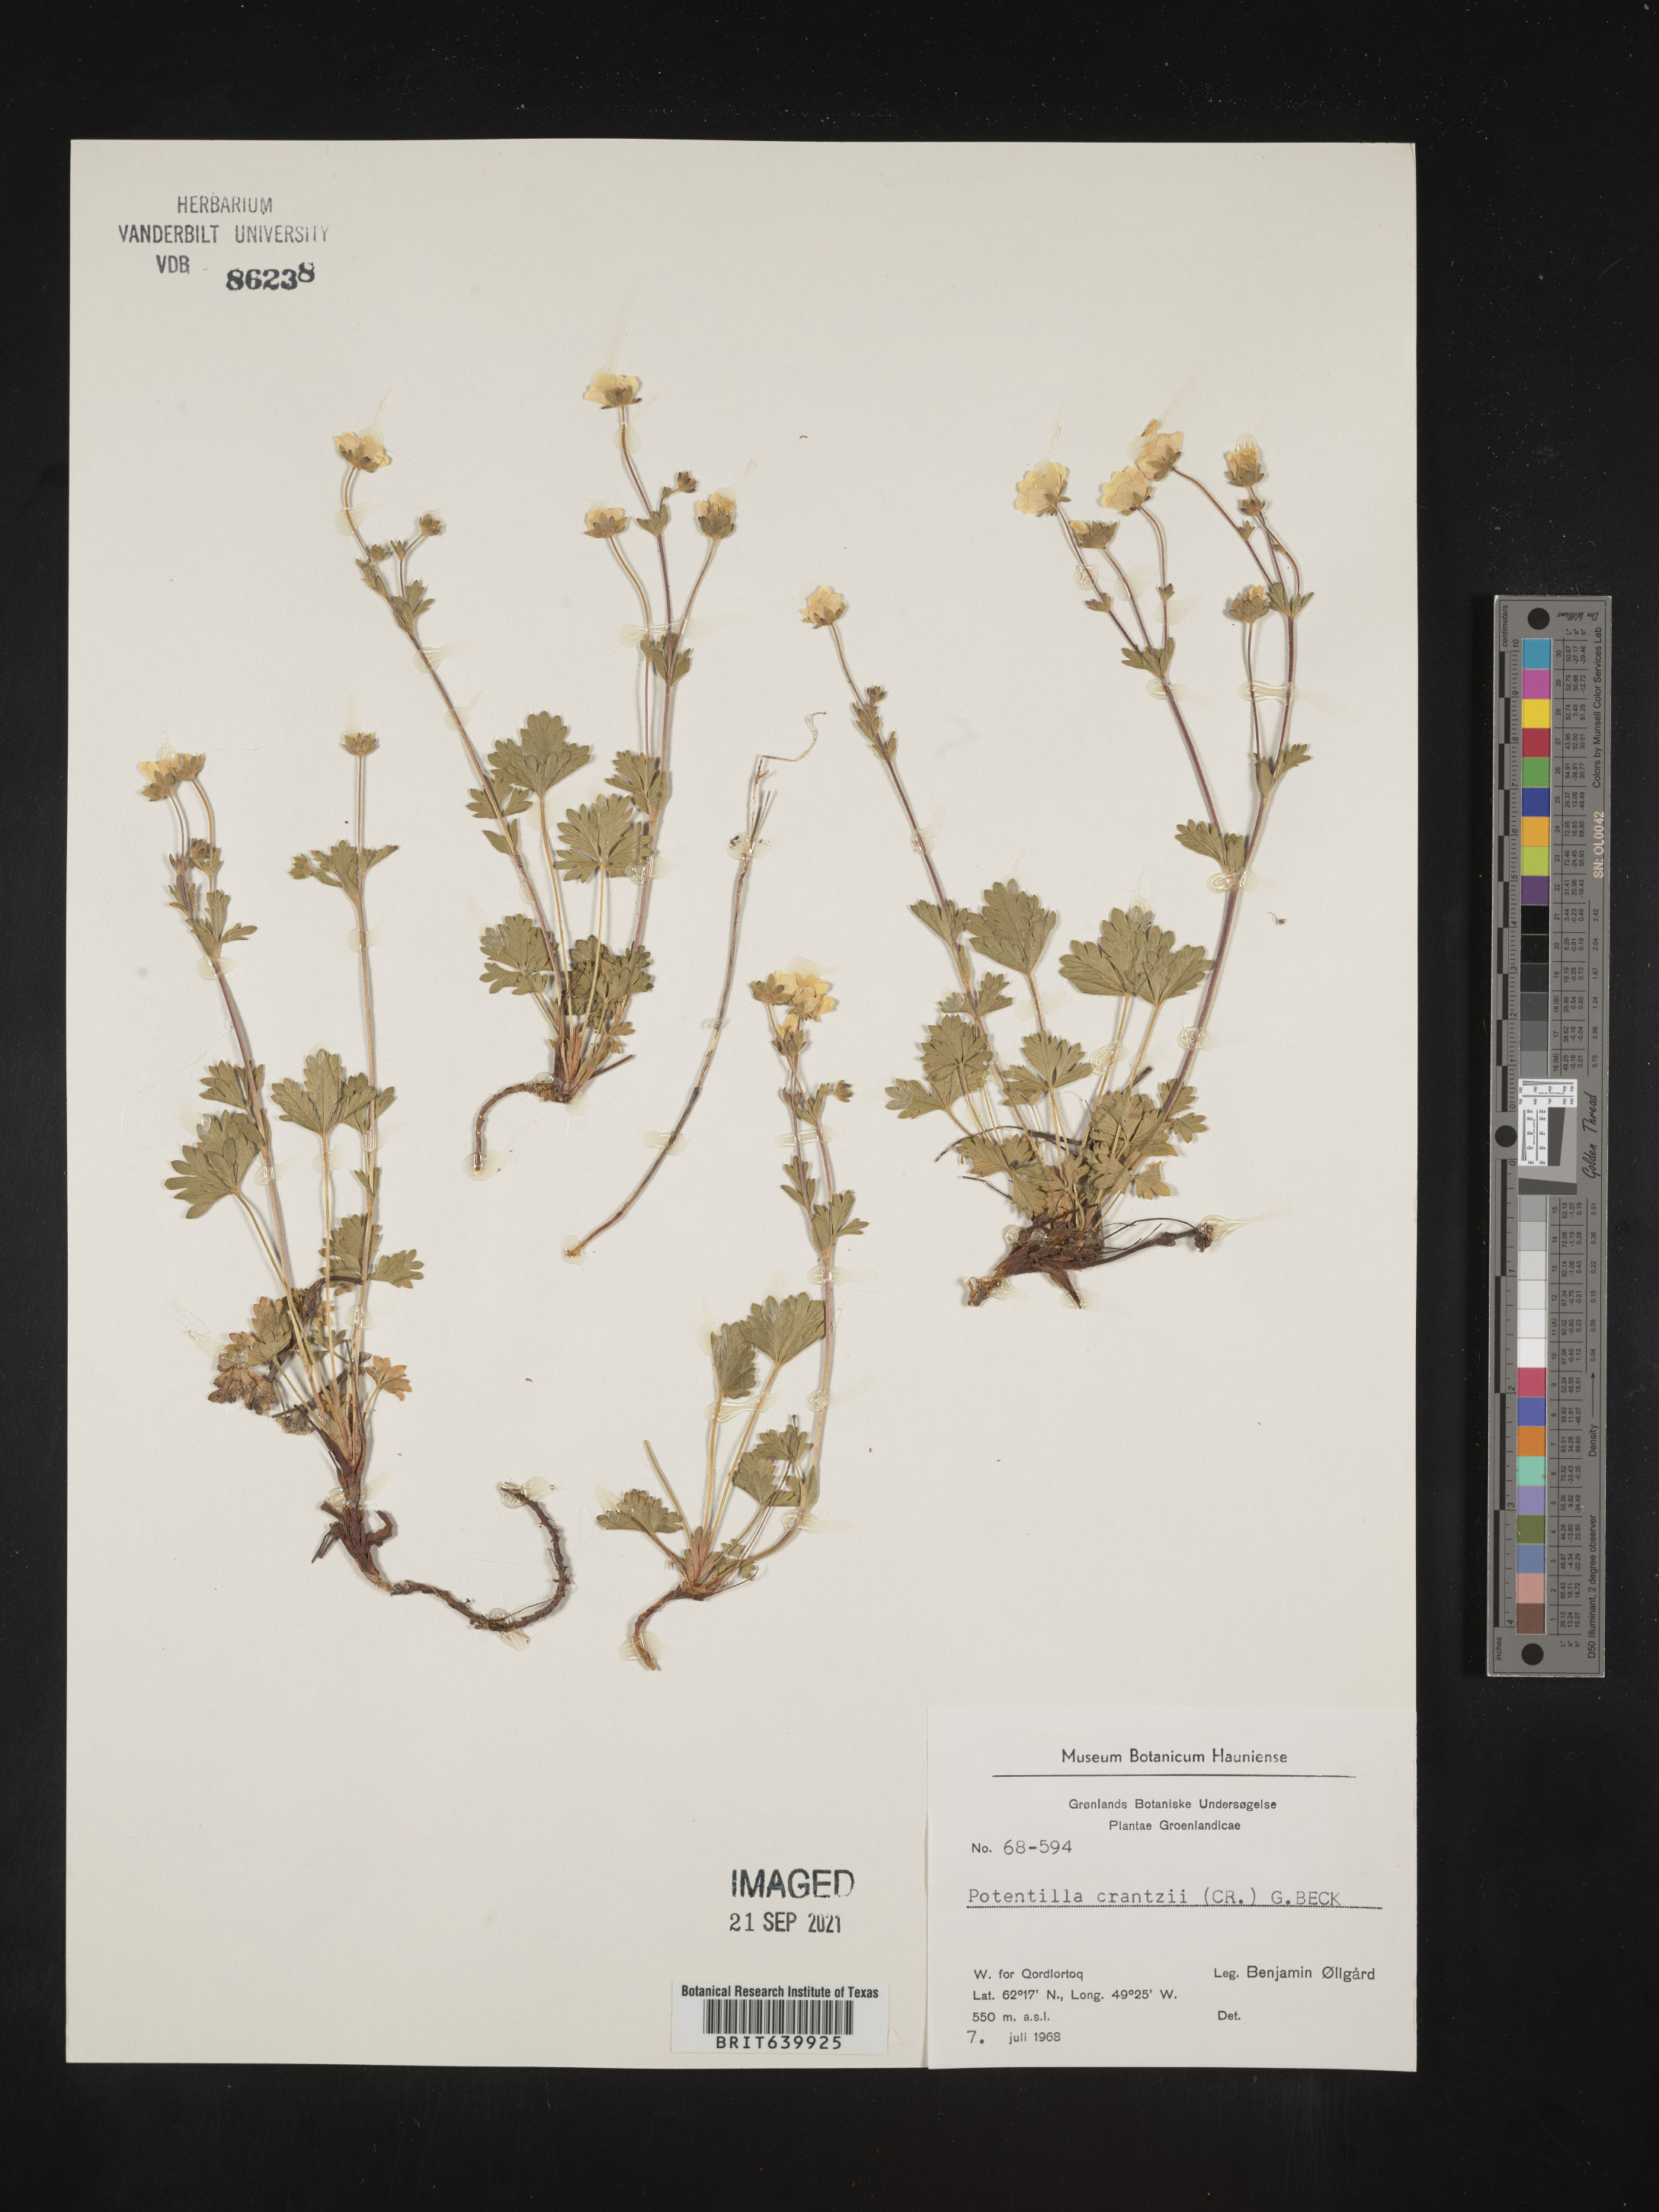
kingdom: Plantae
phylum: Tracheophyta
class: Magnoliopsida
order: Rosales
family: Rosaceae
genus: Potentilla
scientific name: Potentilla
